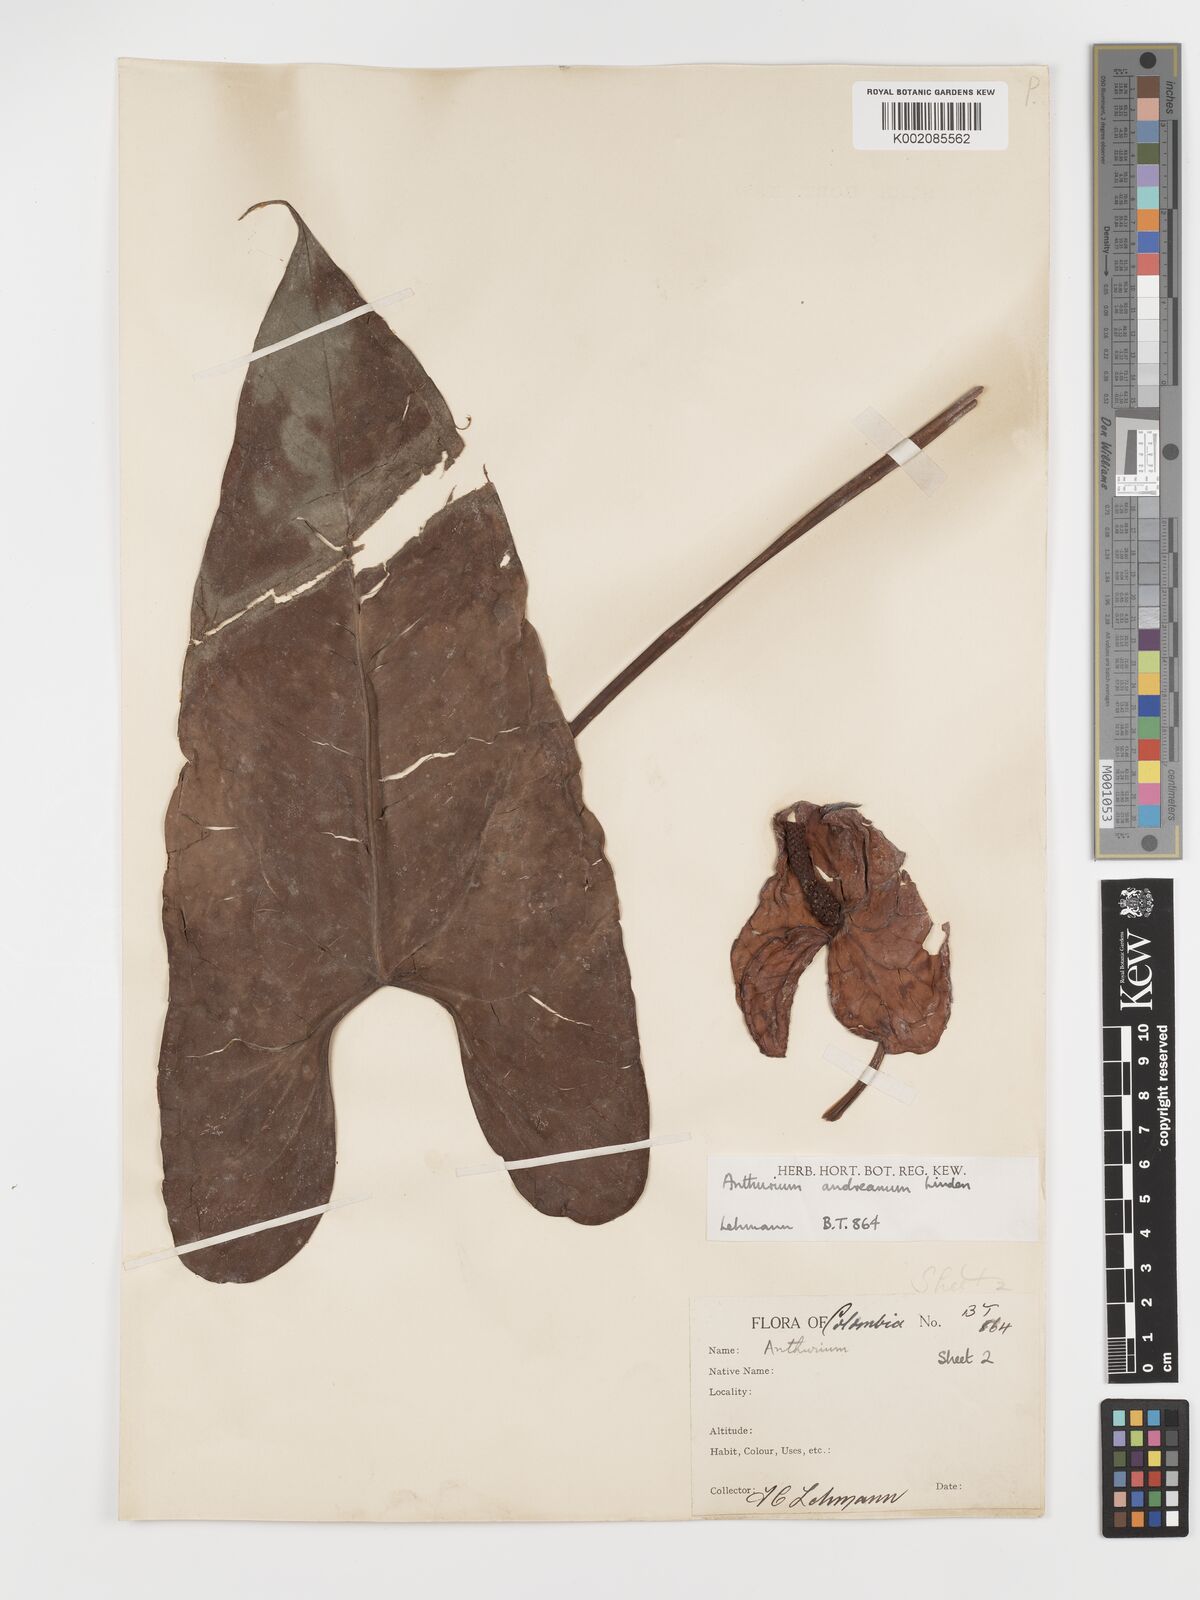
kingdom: Plantae
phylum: Tracheophyta
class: Liliopsida
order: Alismatales
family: Araceae
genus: Anthurium
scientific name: Anthurium andraeanum
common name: Flamingo-flower
